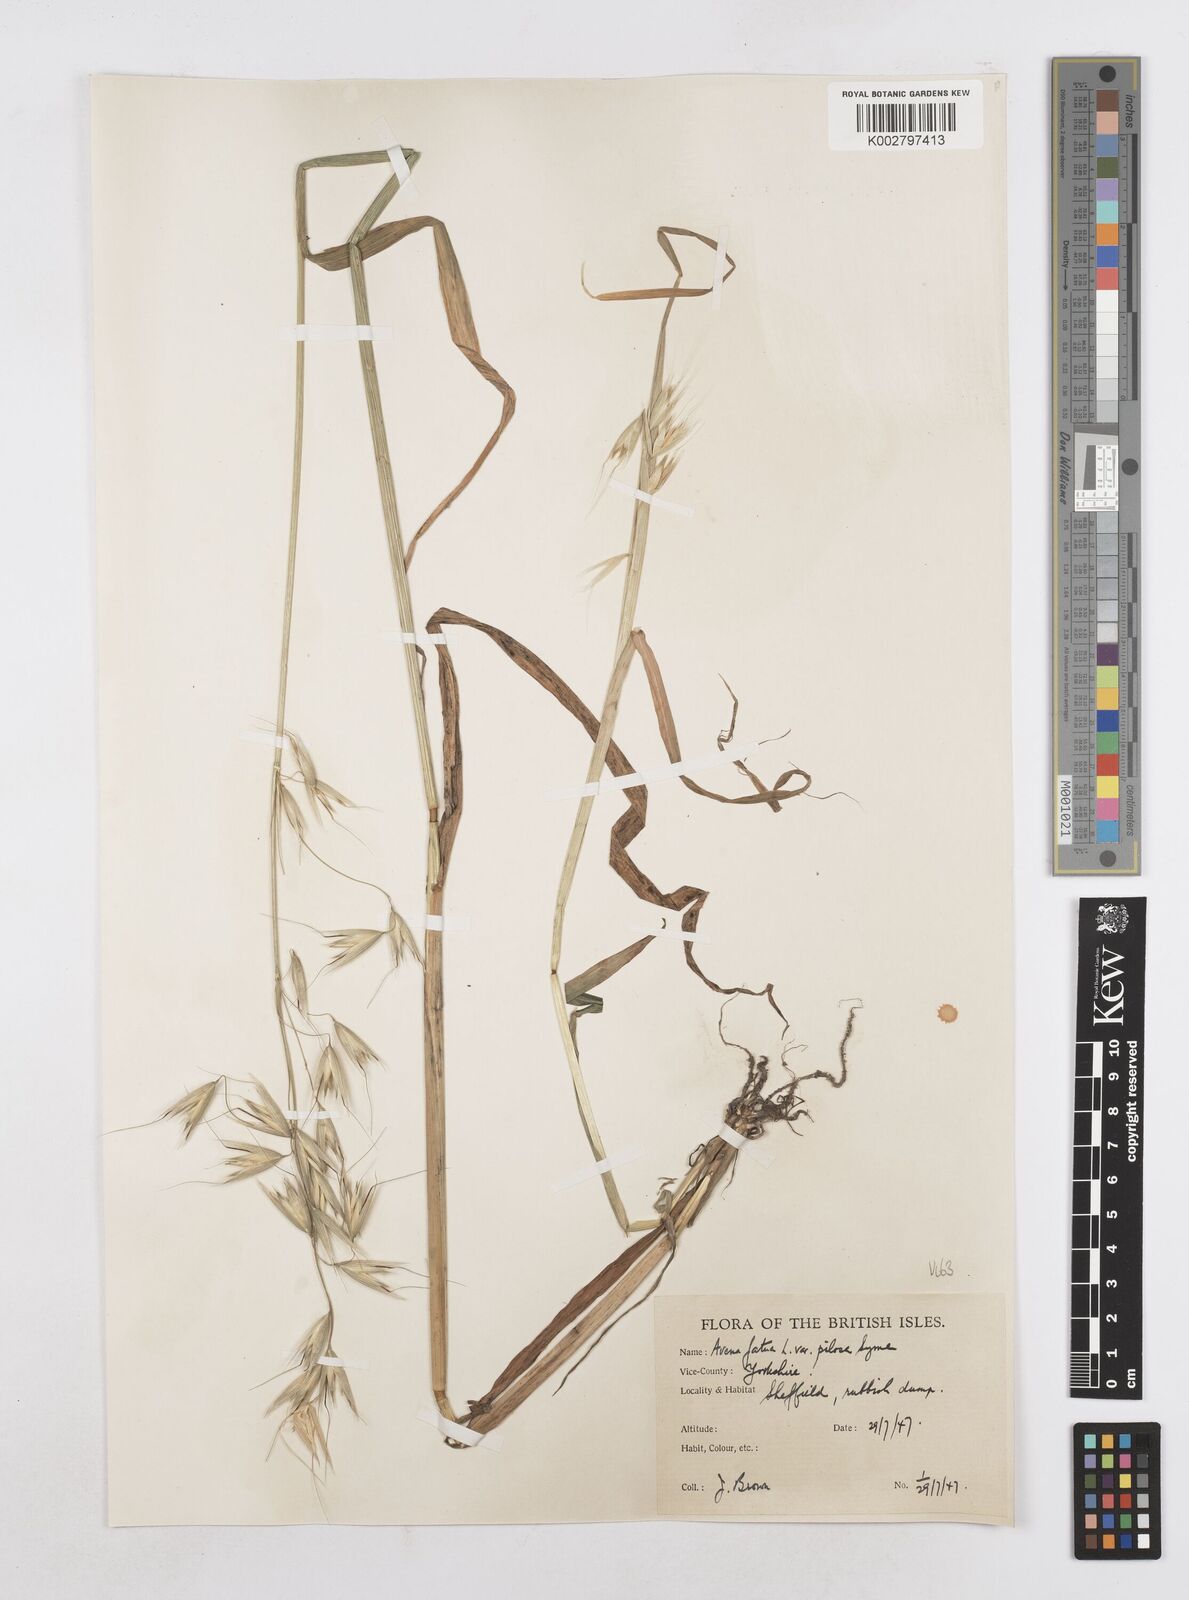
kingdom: Plantae
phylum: Tracheophyta
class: Liliopsida
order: Poales
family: Poaceae
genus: Avena
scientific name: Avena fatua
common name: Wild oat
